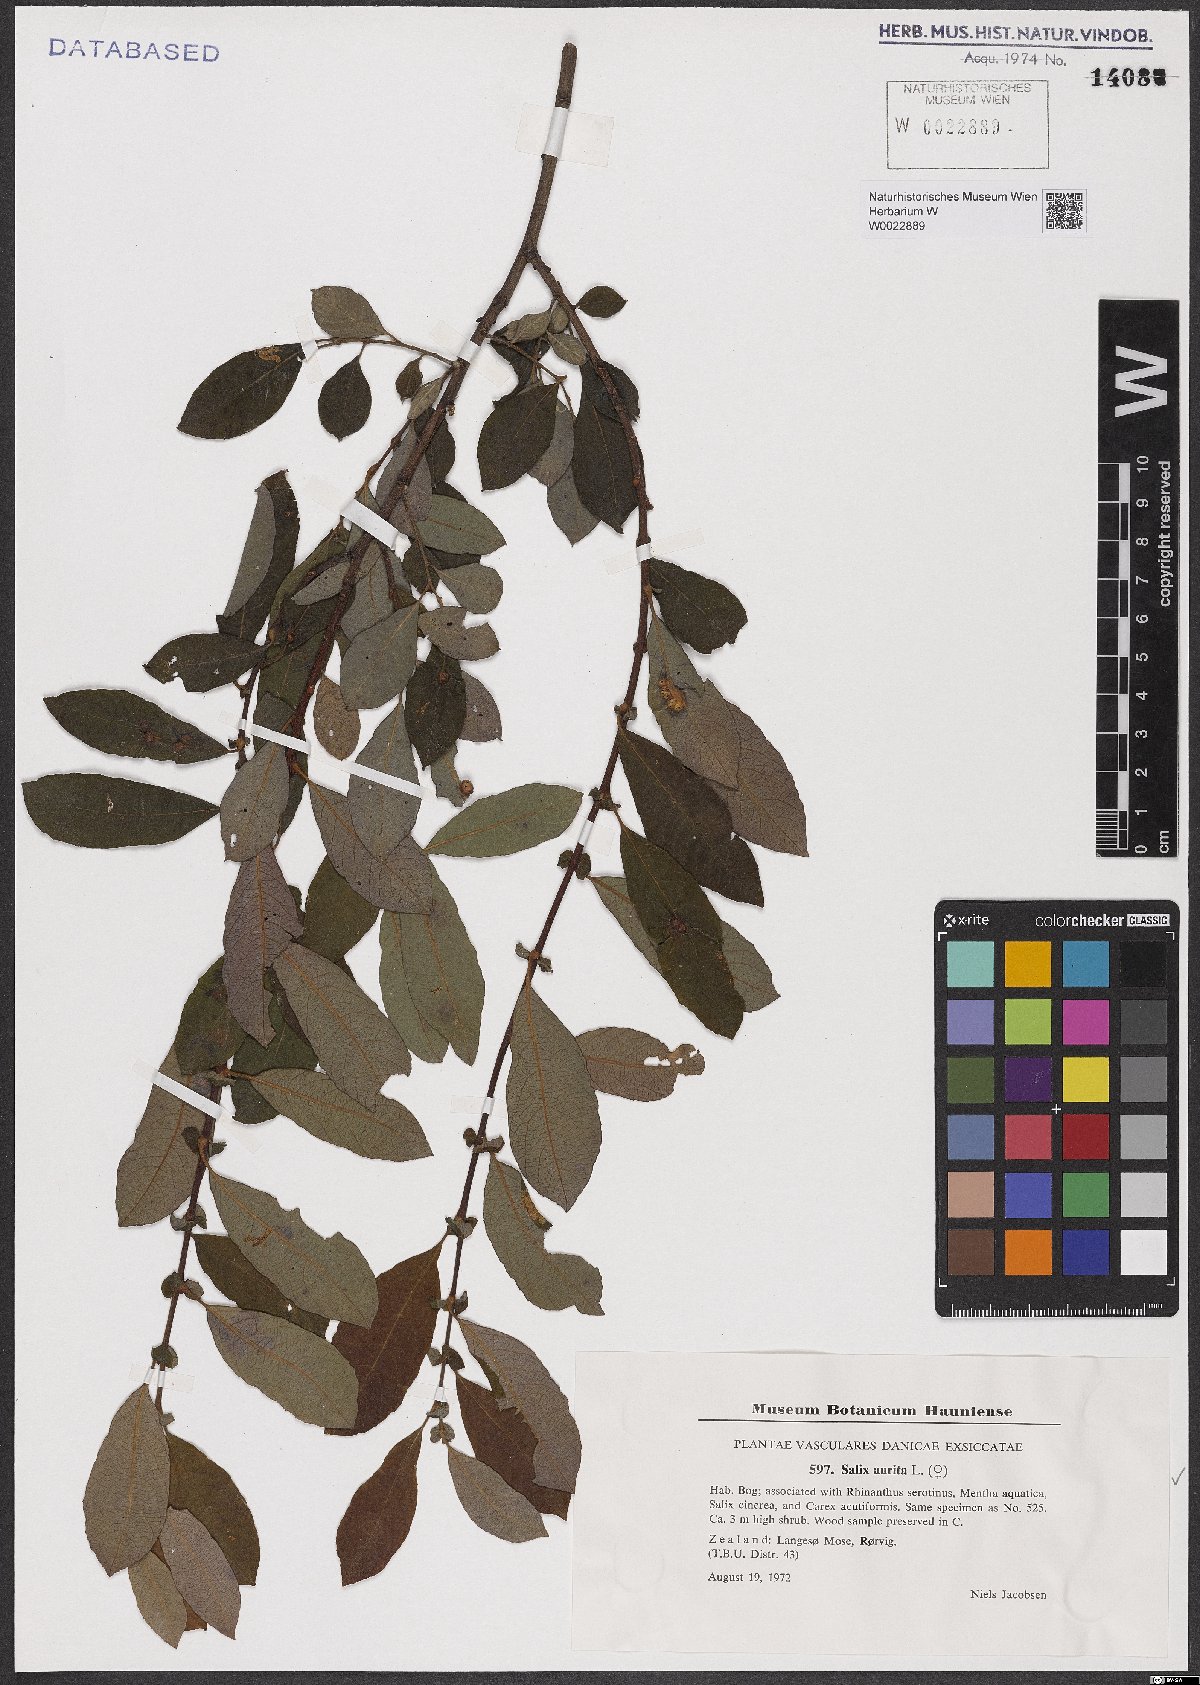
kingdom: Plantae
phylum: Tracheophyta
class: Magnoliopsida
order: Malpighiales
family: Salicaceae
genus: Salix
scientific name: Salix aurita
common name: Eared willow
